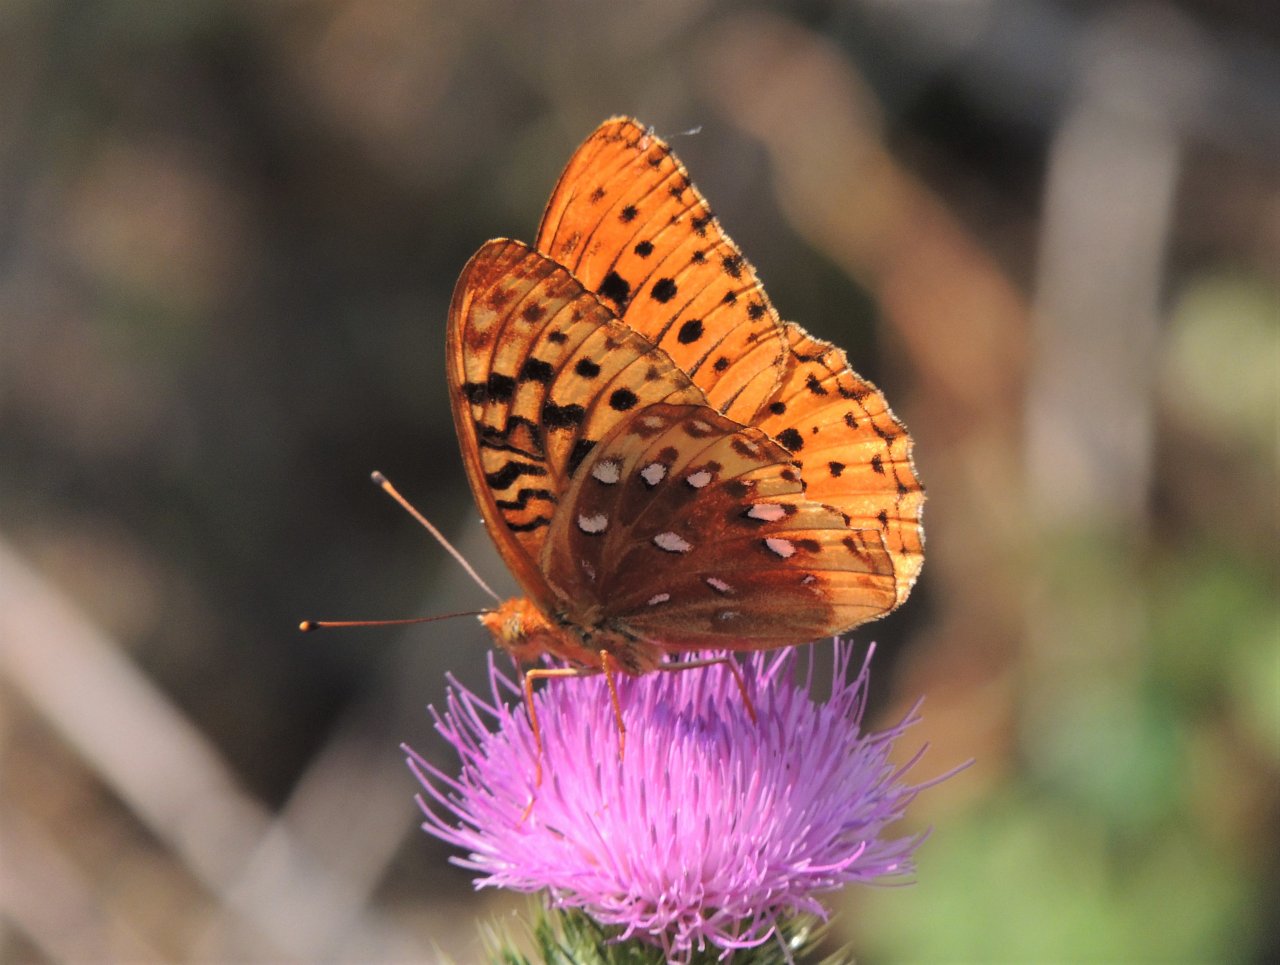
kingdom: Animalia
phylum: Arthropoda
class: Insecta
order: Lepidoptera
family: Nymphalidae
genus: Speyeria
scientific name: Speyeria cybele
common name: Great Spangled Fritillary
